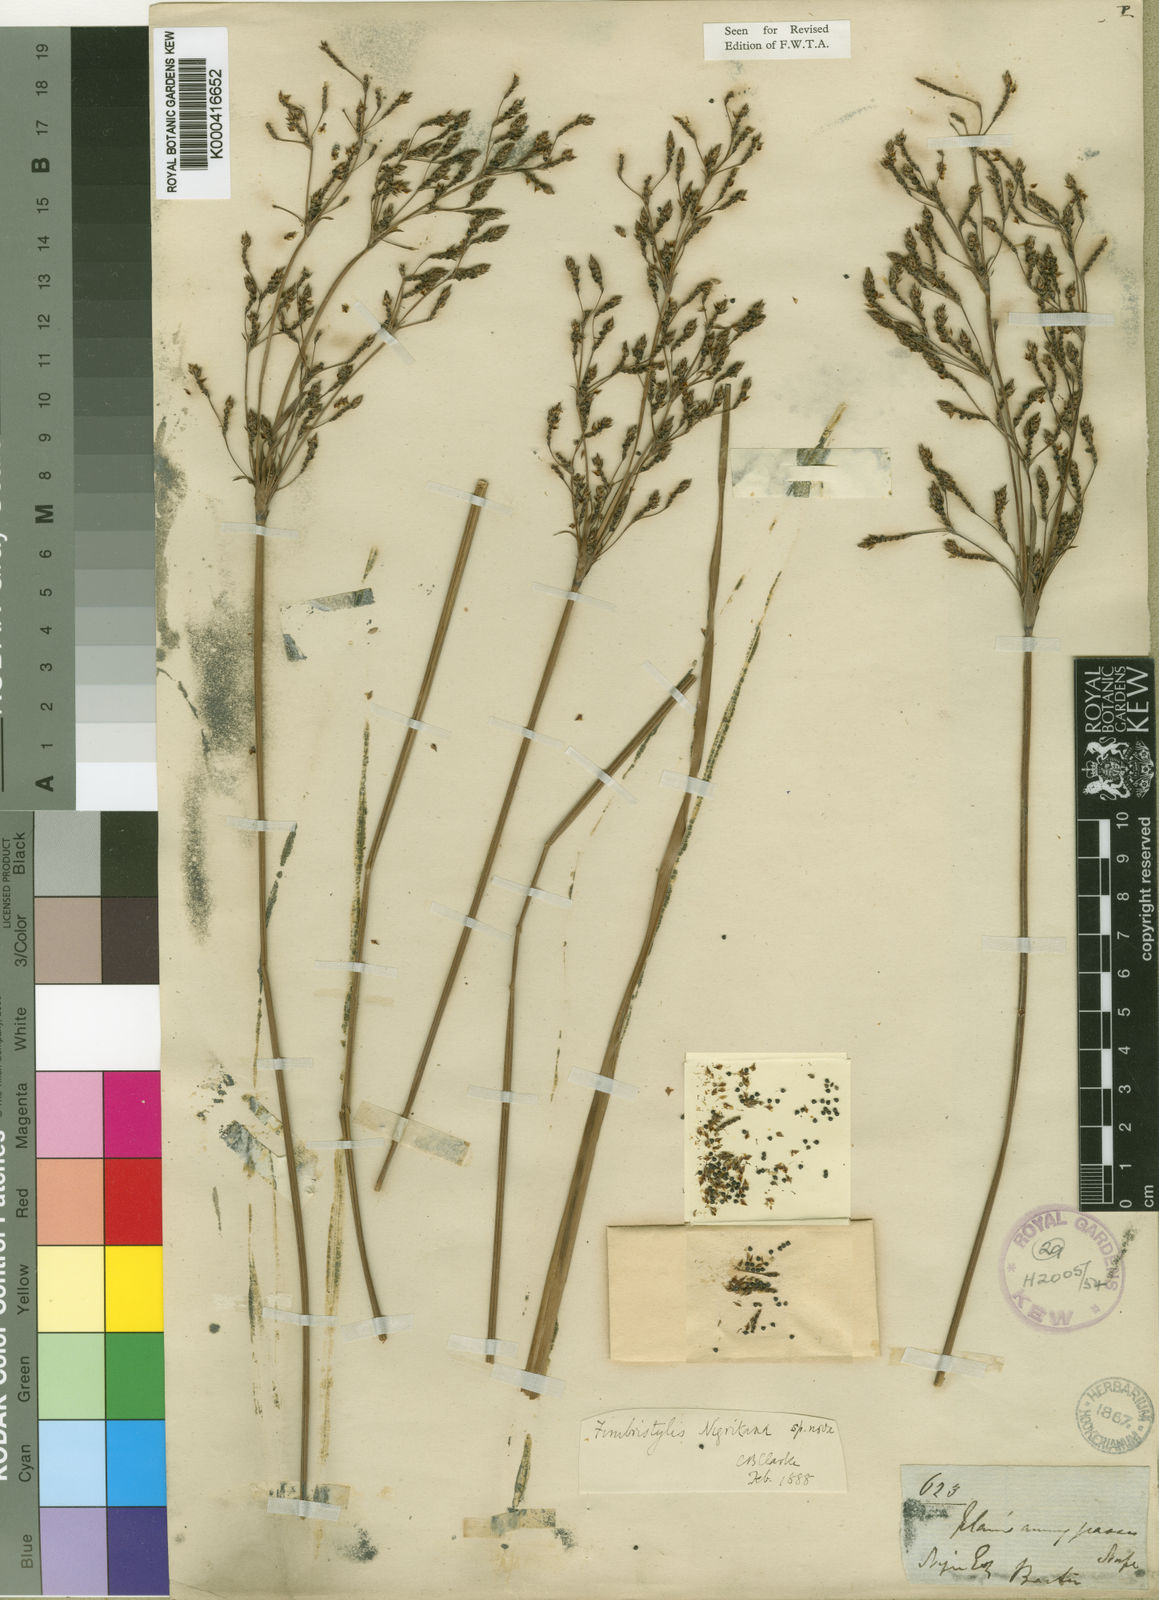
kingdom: Plantae
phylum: Tracheophyta
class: Liliopsida
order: Poales
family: Cyperaceae
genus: Fimbristylis
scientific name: Fimbristylis nigritana
